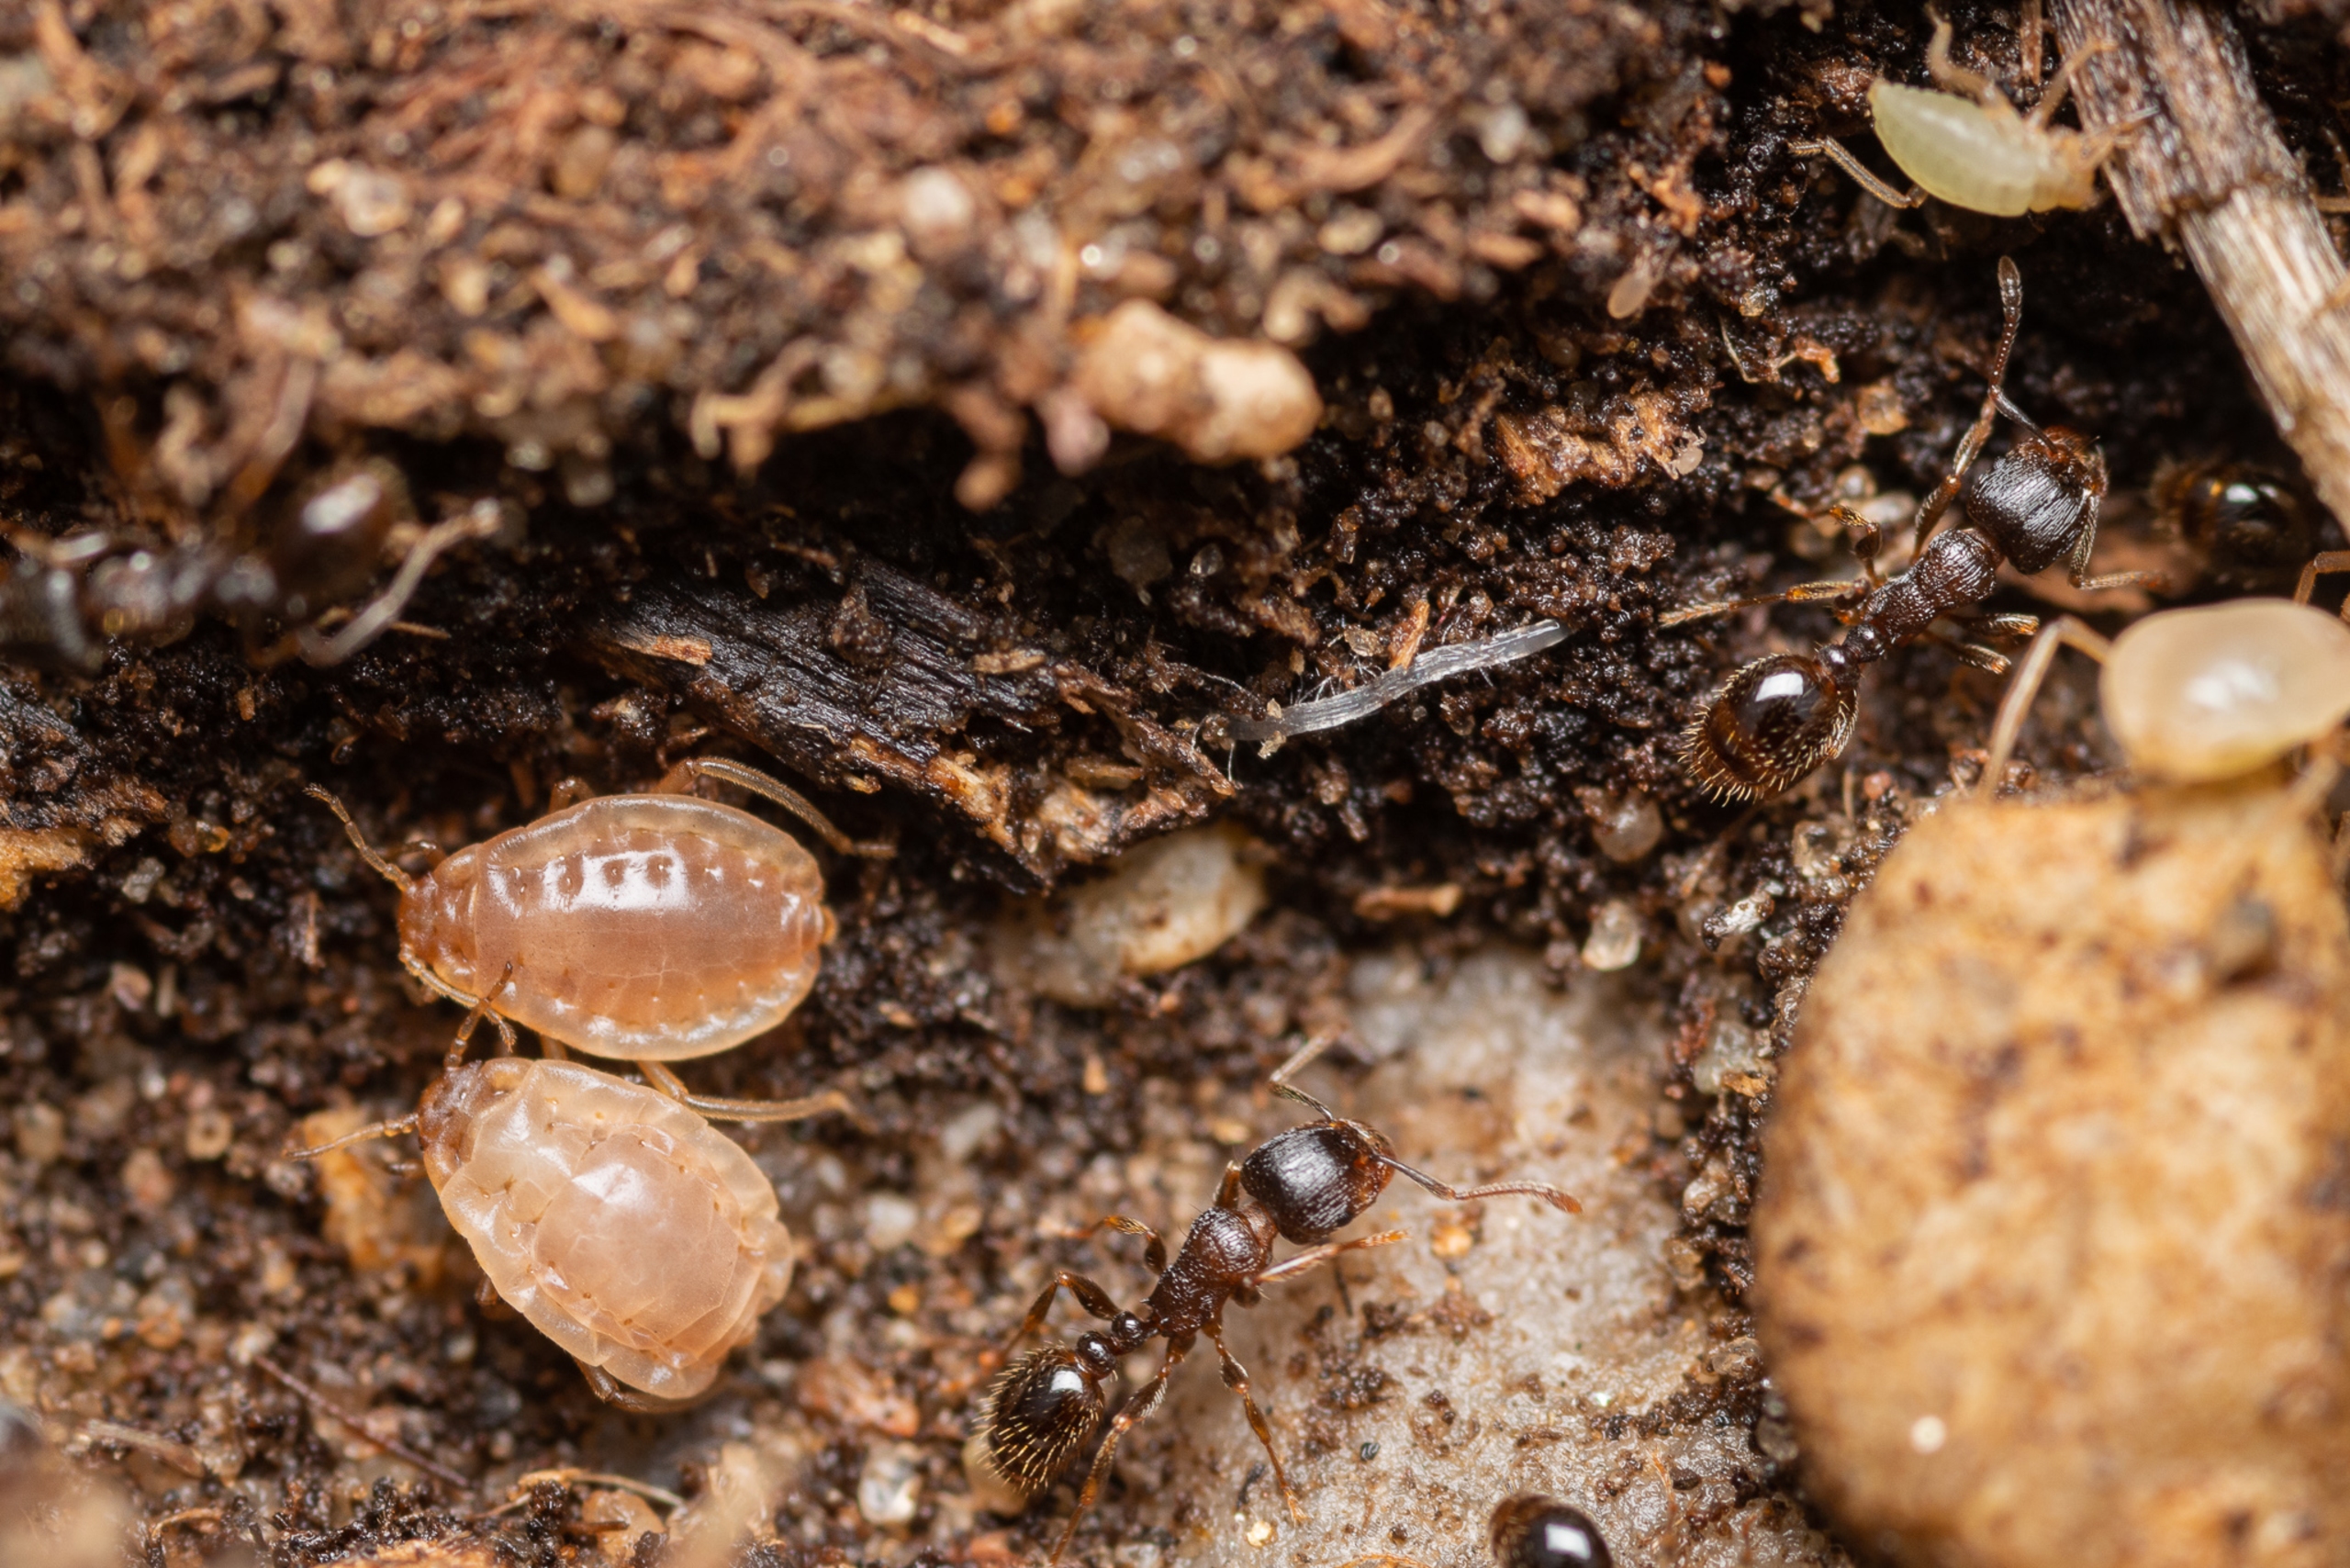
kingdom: Animalia
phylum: Arthropoda
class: Insecta
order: Hemiptera
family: Aphididae
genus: Paracletus
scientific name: Paracletus cimiciformis
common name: Vampyrrodlus
